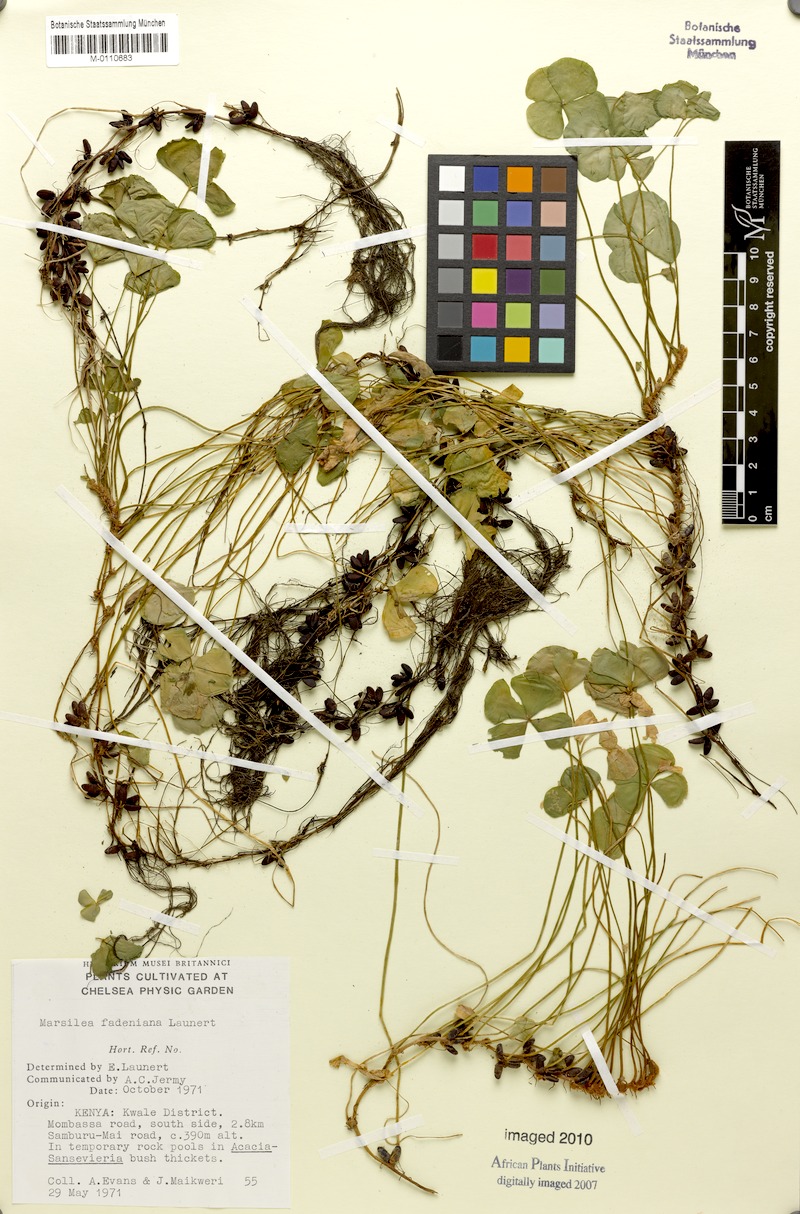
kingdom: Plantae
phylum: Tracheophyta
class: Polypodiopsida
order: Salviniales
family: Marsileaceae
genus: Marsilea
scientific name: Marsilea fadeniana
